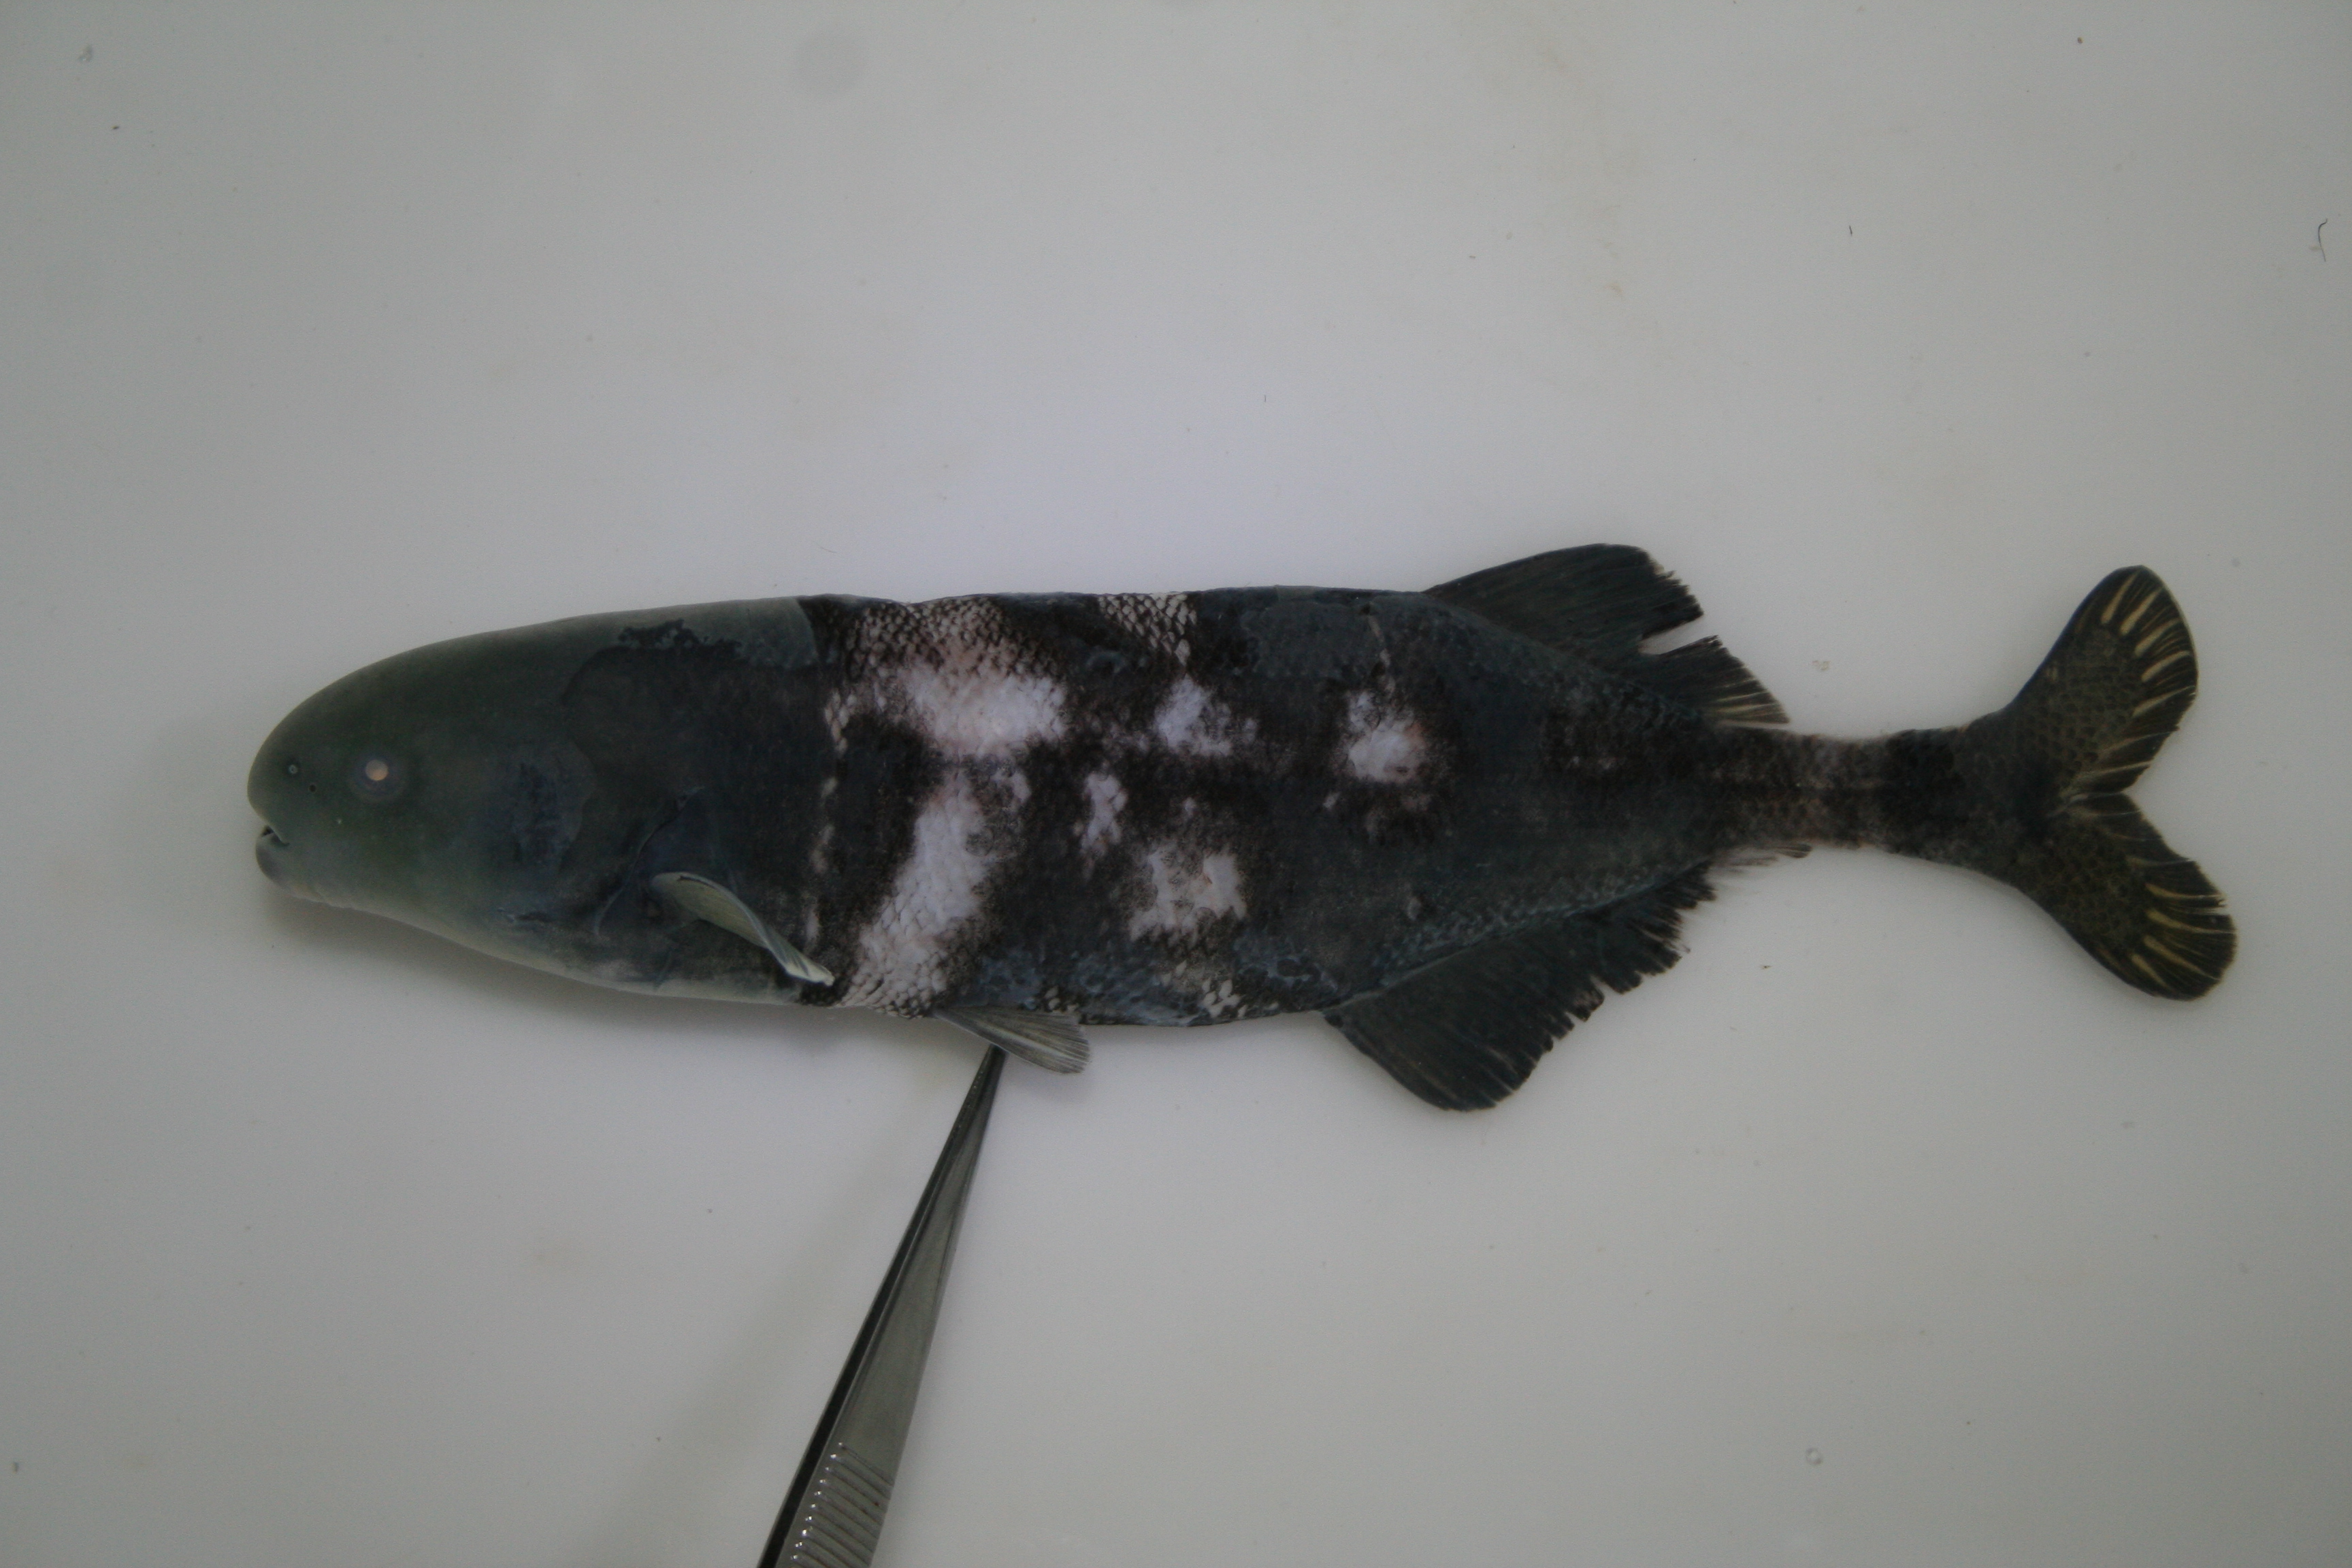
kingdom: Animalia
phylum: Chordata
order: Osteoglossiformes
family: Mormyridae
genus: Hippopotamyrus
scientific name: Hippopotamyrus
